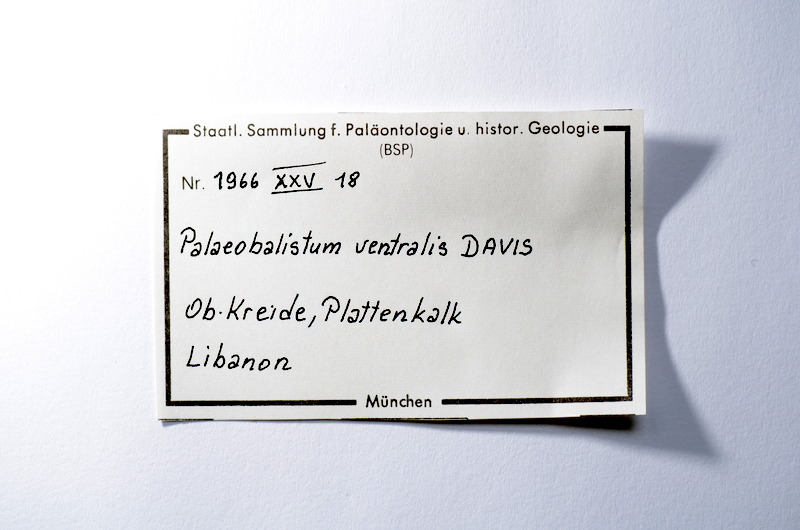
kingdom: Animalia
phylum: Chordata
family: Pycnodontes
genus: Palaeobalistum
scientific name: Palaeobalistum ventralis
